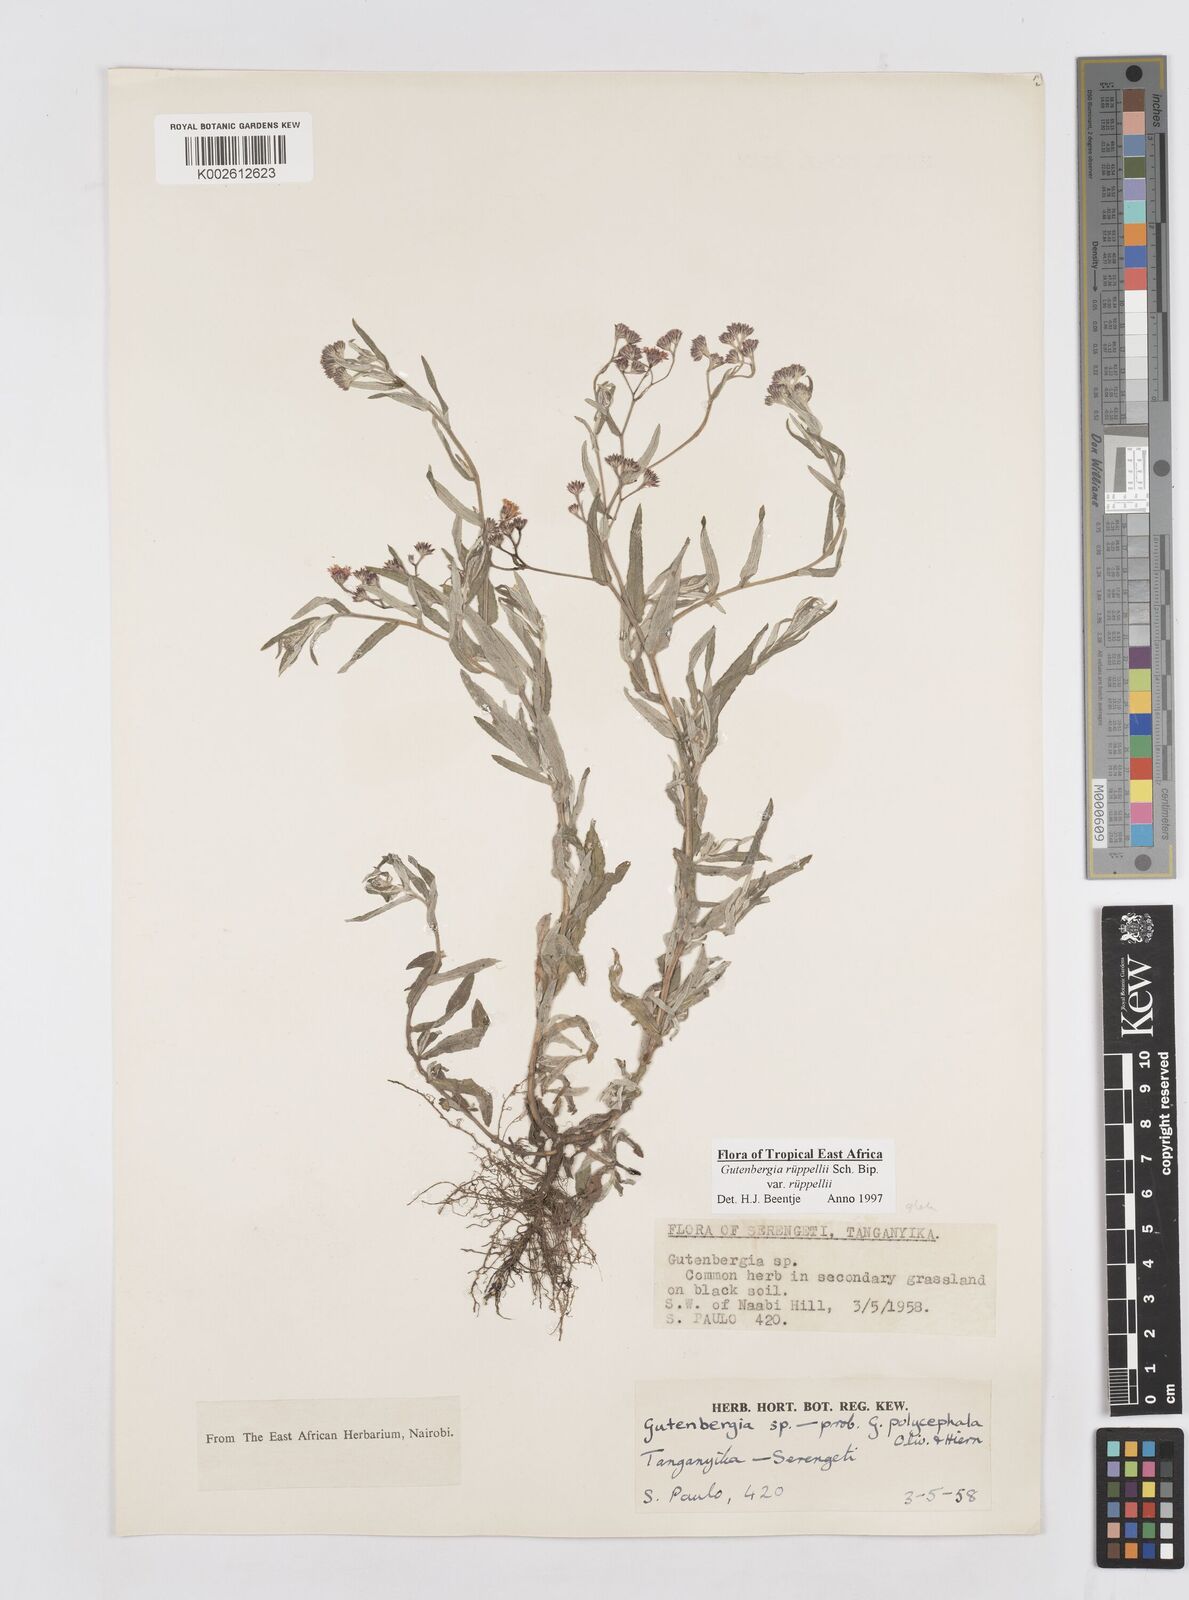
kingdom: Plantae
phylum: Tracheophyta
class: Magnoliopsida
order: Asterales
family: Asteraceae
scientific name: Asteraceae
